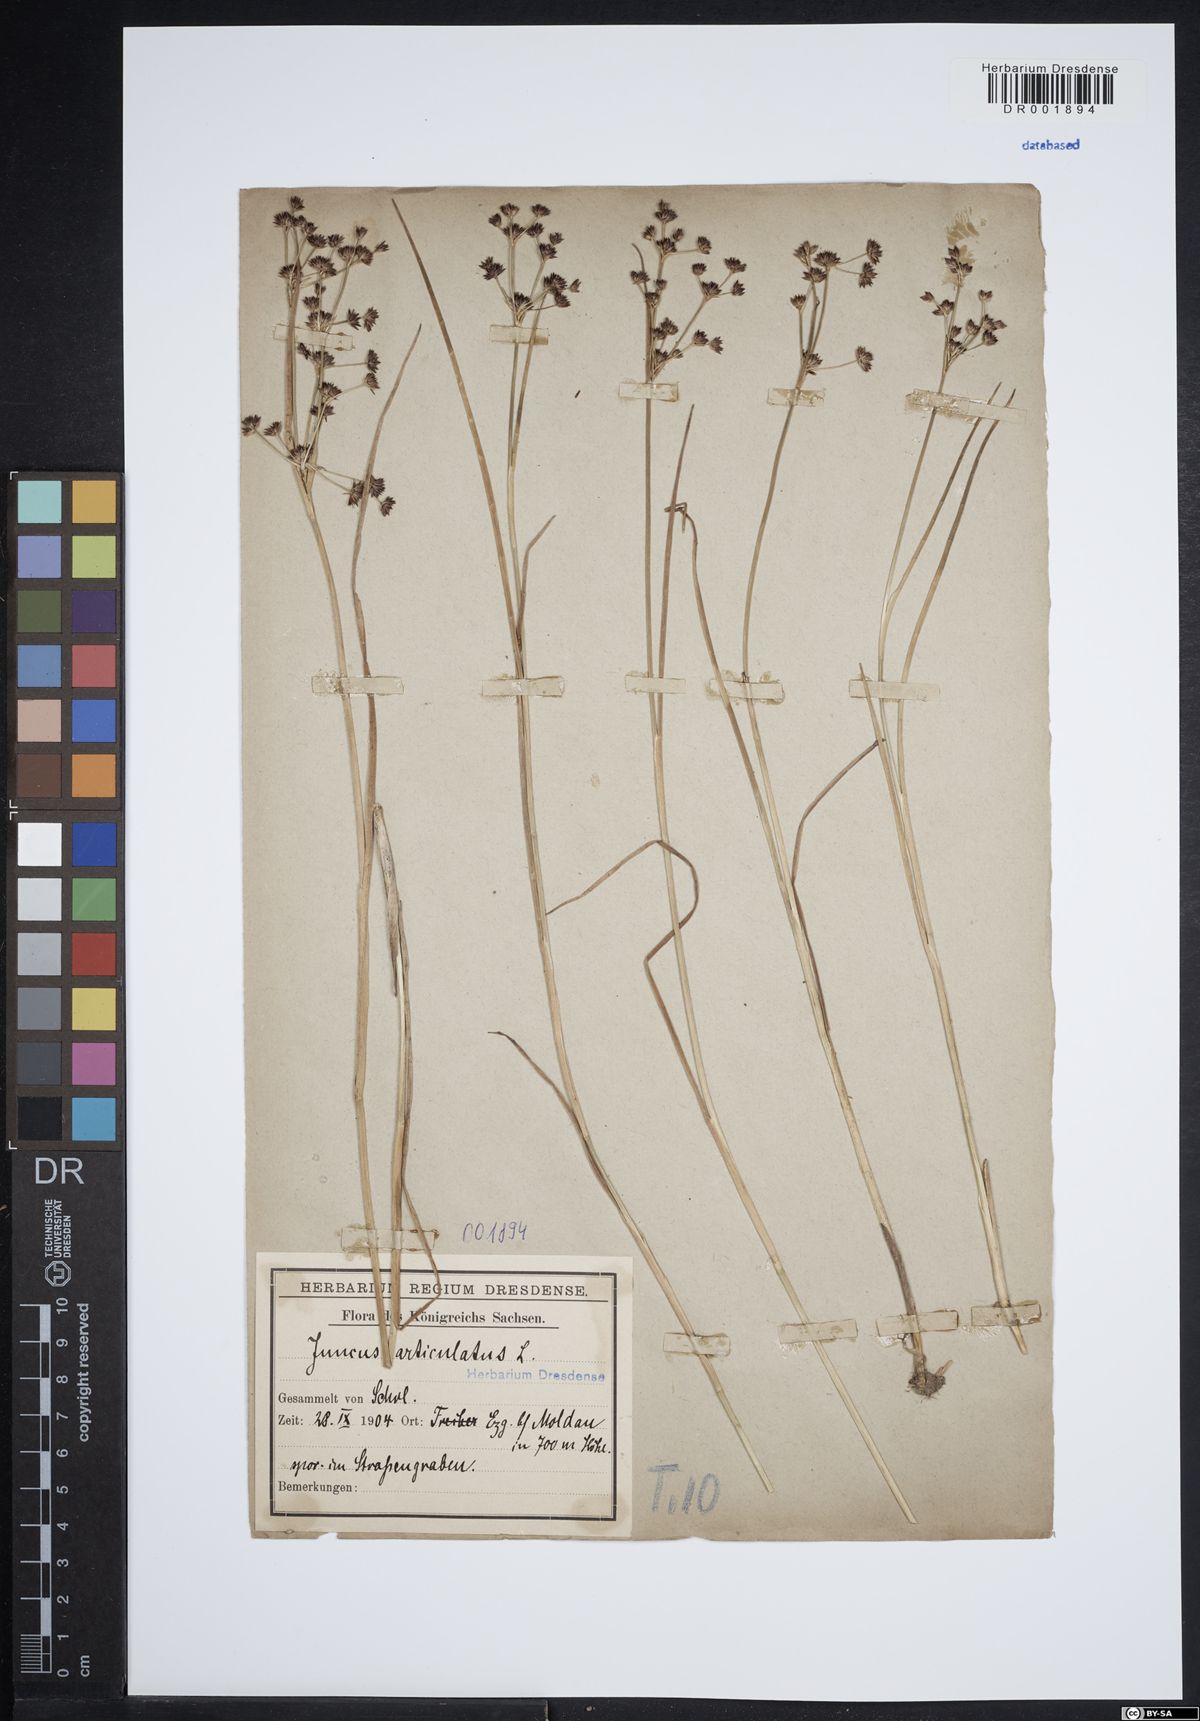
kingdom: Plantae
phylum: Tracheophyta
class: Liliopsida
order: Poales
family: Juncaceae
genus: Juncus
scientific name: Juncus articulatus
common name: Jointed rush
